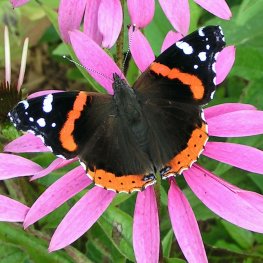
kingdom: Animalia
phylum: Arthropoda
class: Insecta
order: Lepidoptera
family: Nymphalidae
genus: Vanessa
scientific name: Vanessa atalanta
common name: Red Admiral
